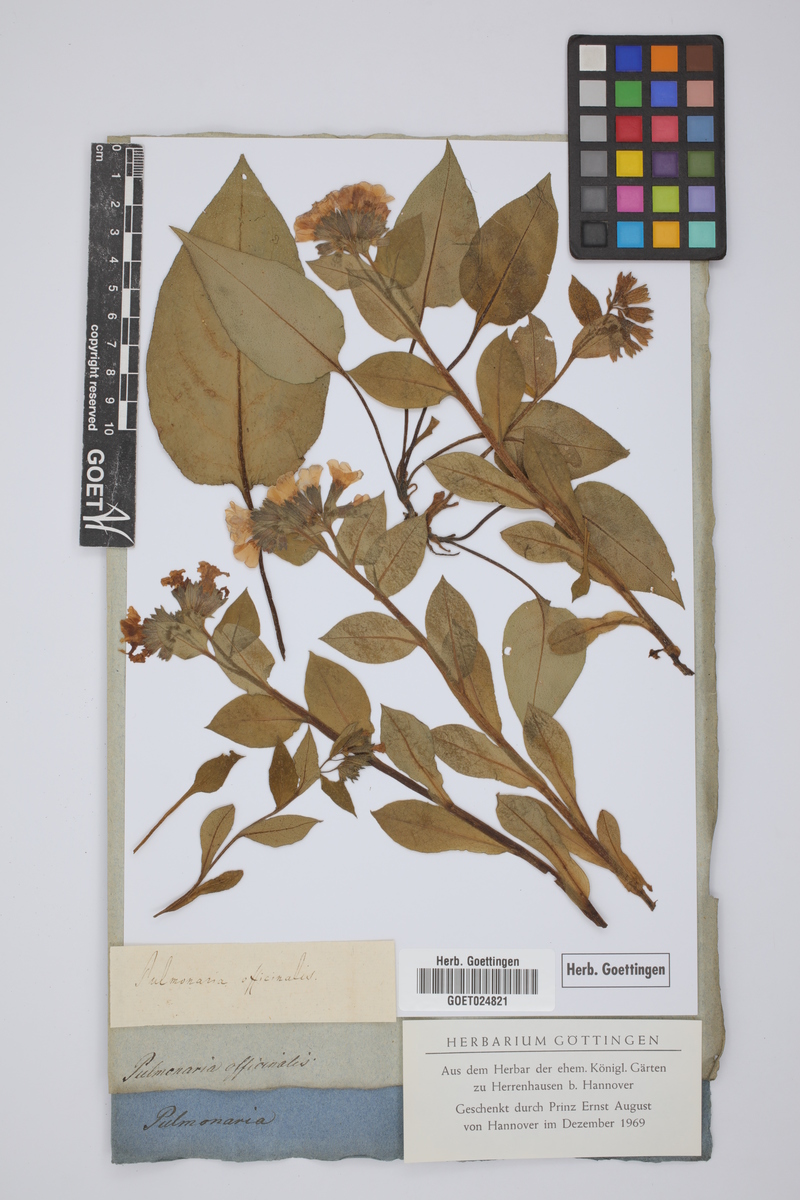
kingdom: Plantae
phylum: Tracheophyta
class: Magnoliopsida
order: Boraginales
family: Boraginaceae
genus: Pulmonaria
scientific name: Pulmonaria officinalis
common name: Lungwort
